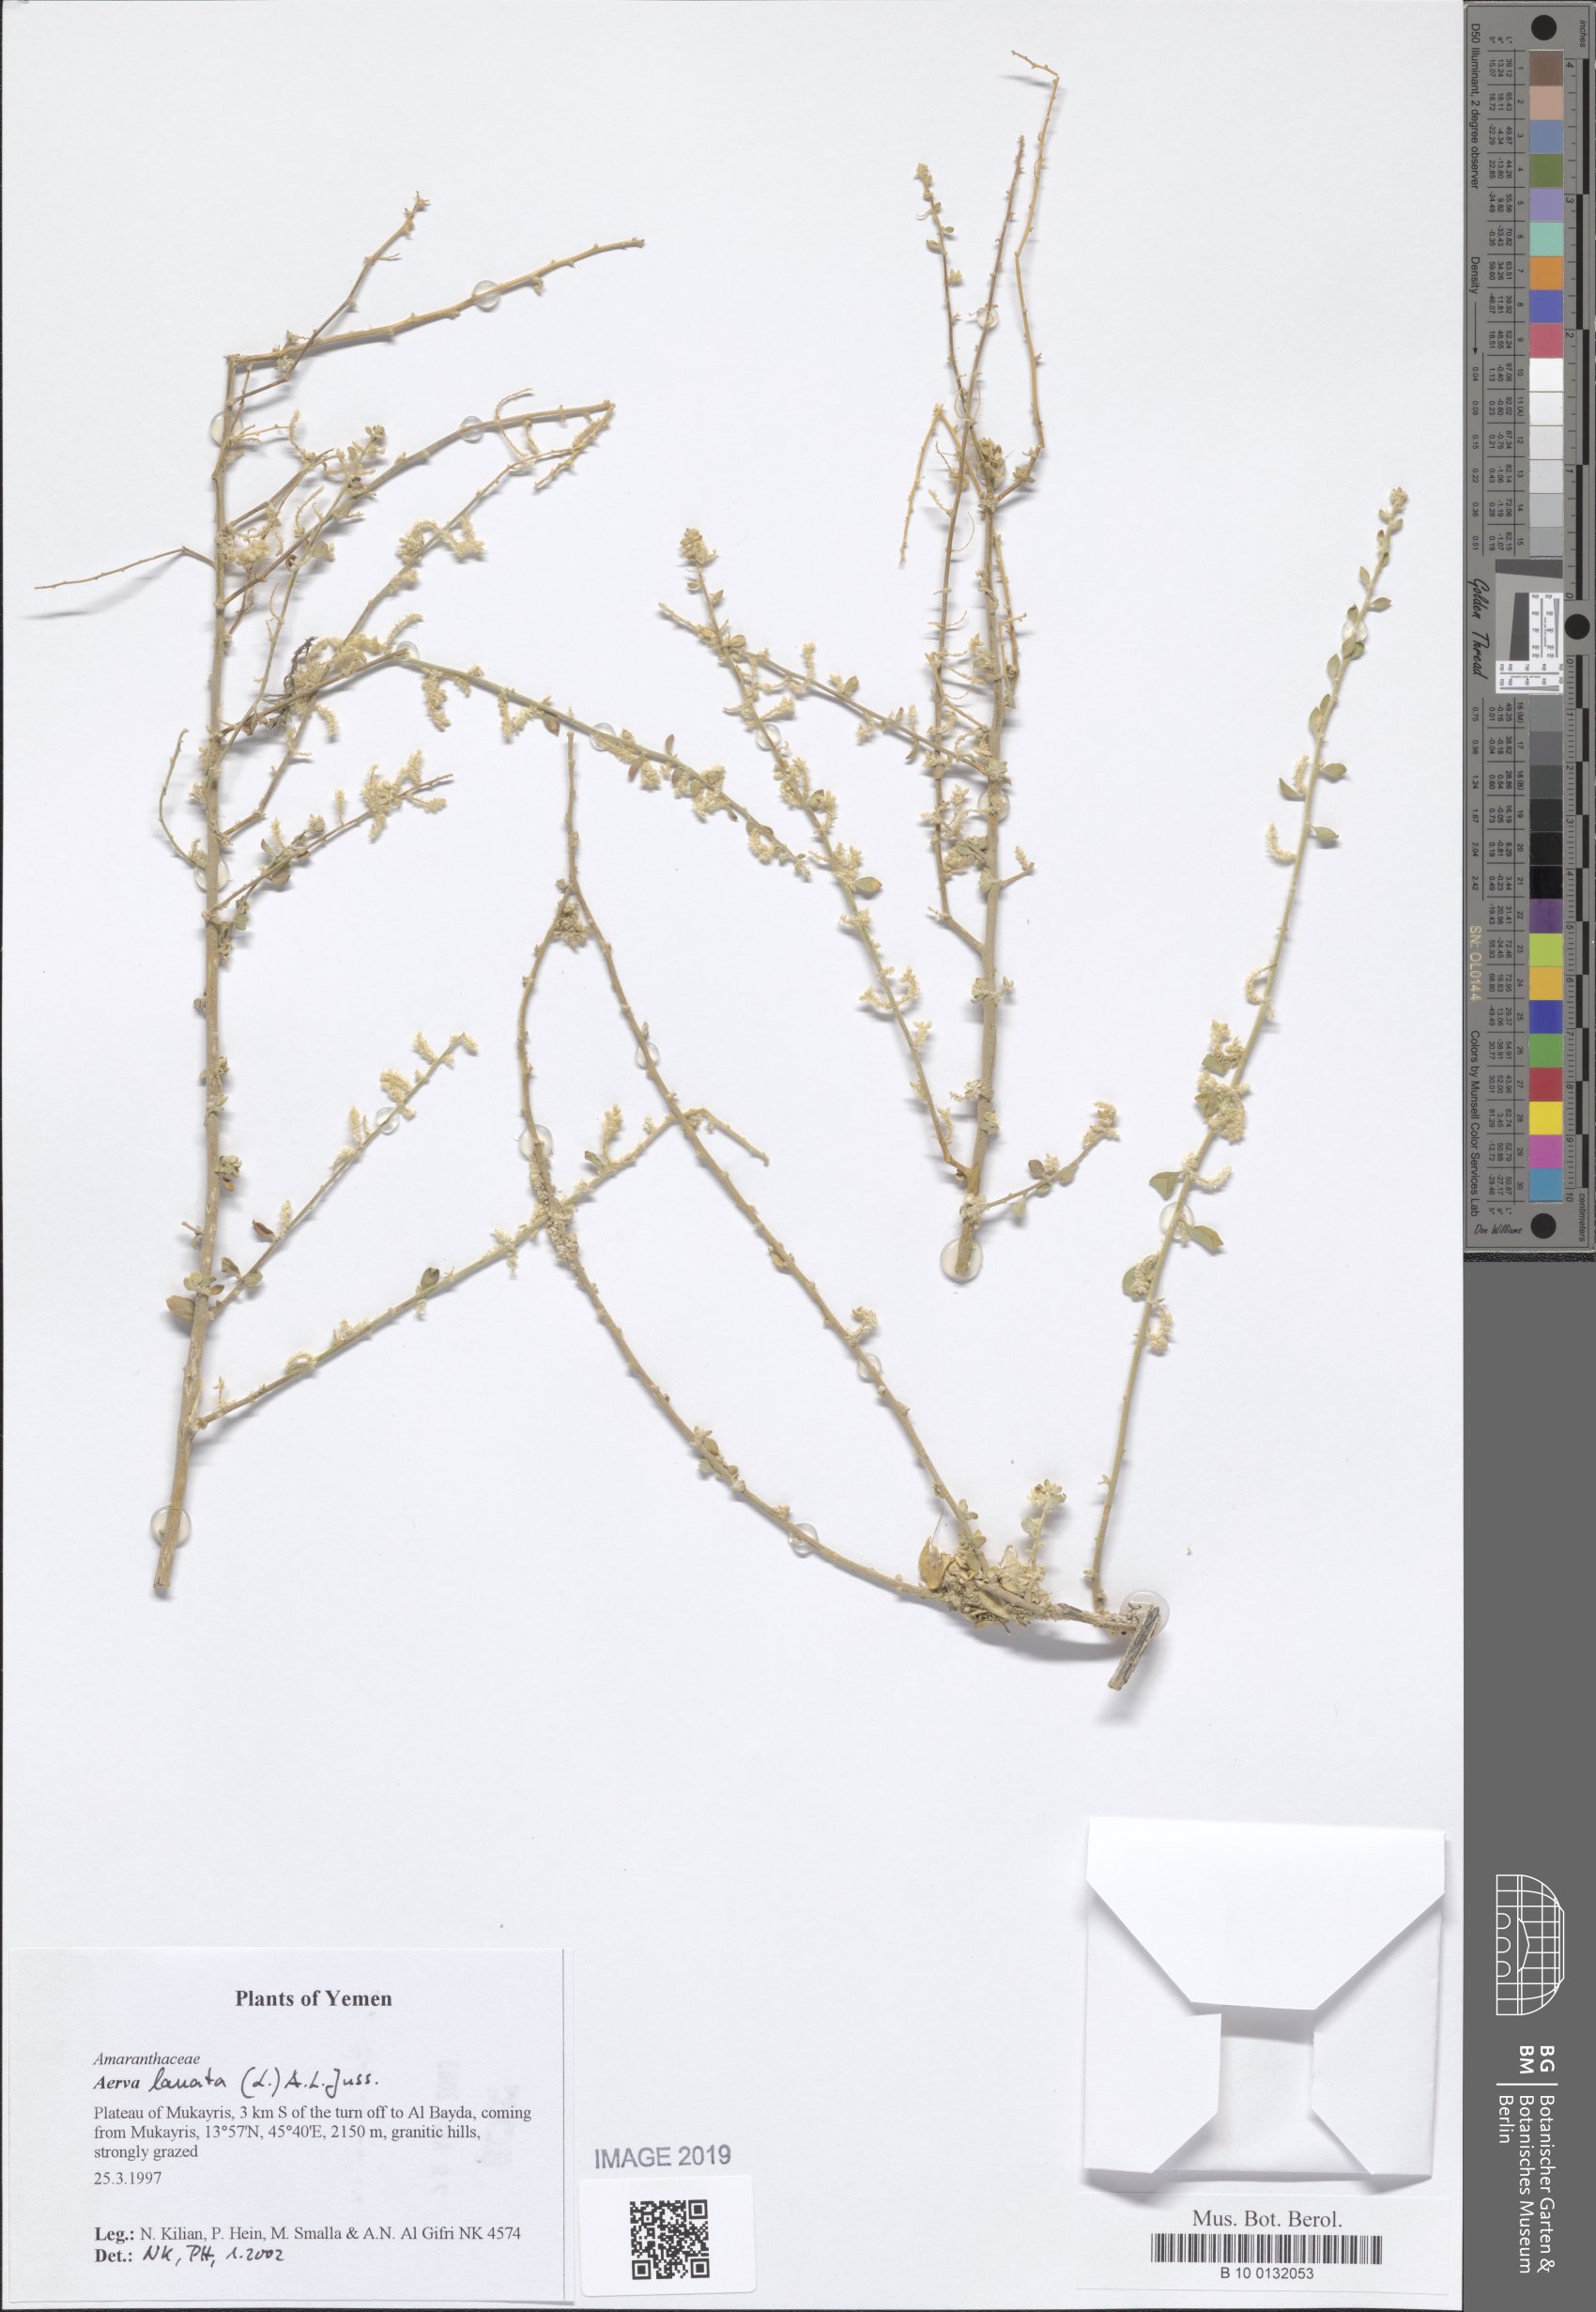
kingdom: Plantae
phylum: Tracheophyta
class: Magnoliopsida
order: Caryophyllales
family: Amaranthaceae
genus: Ouret
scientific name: Ouret lanata
